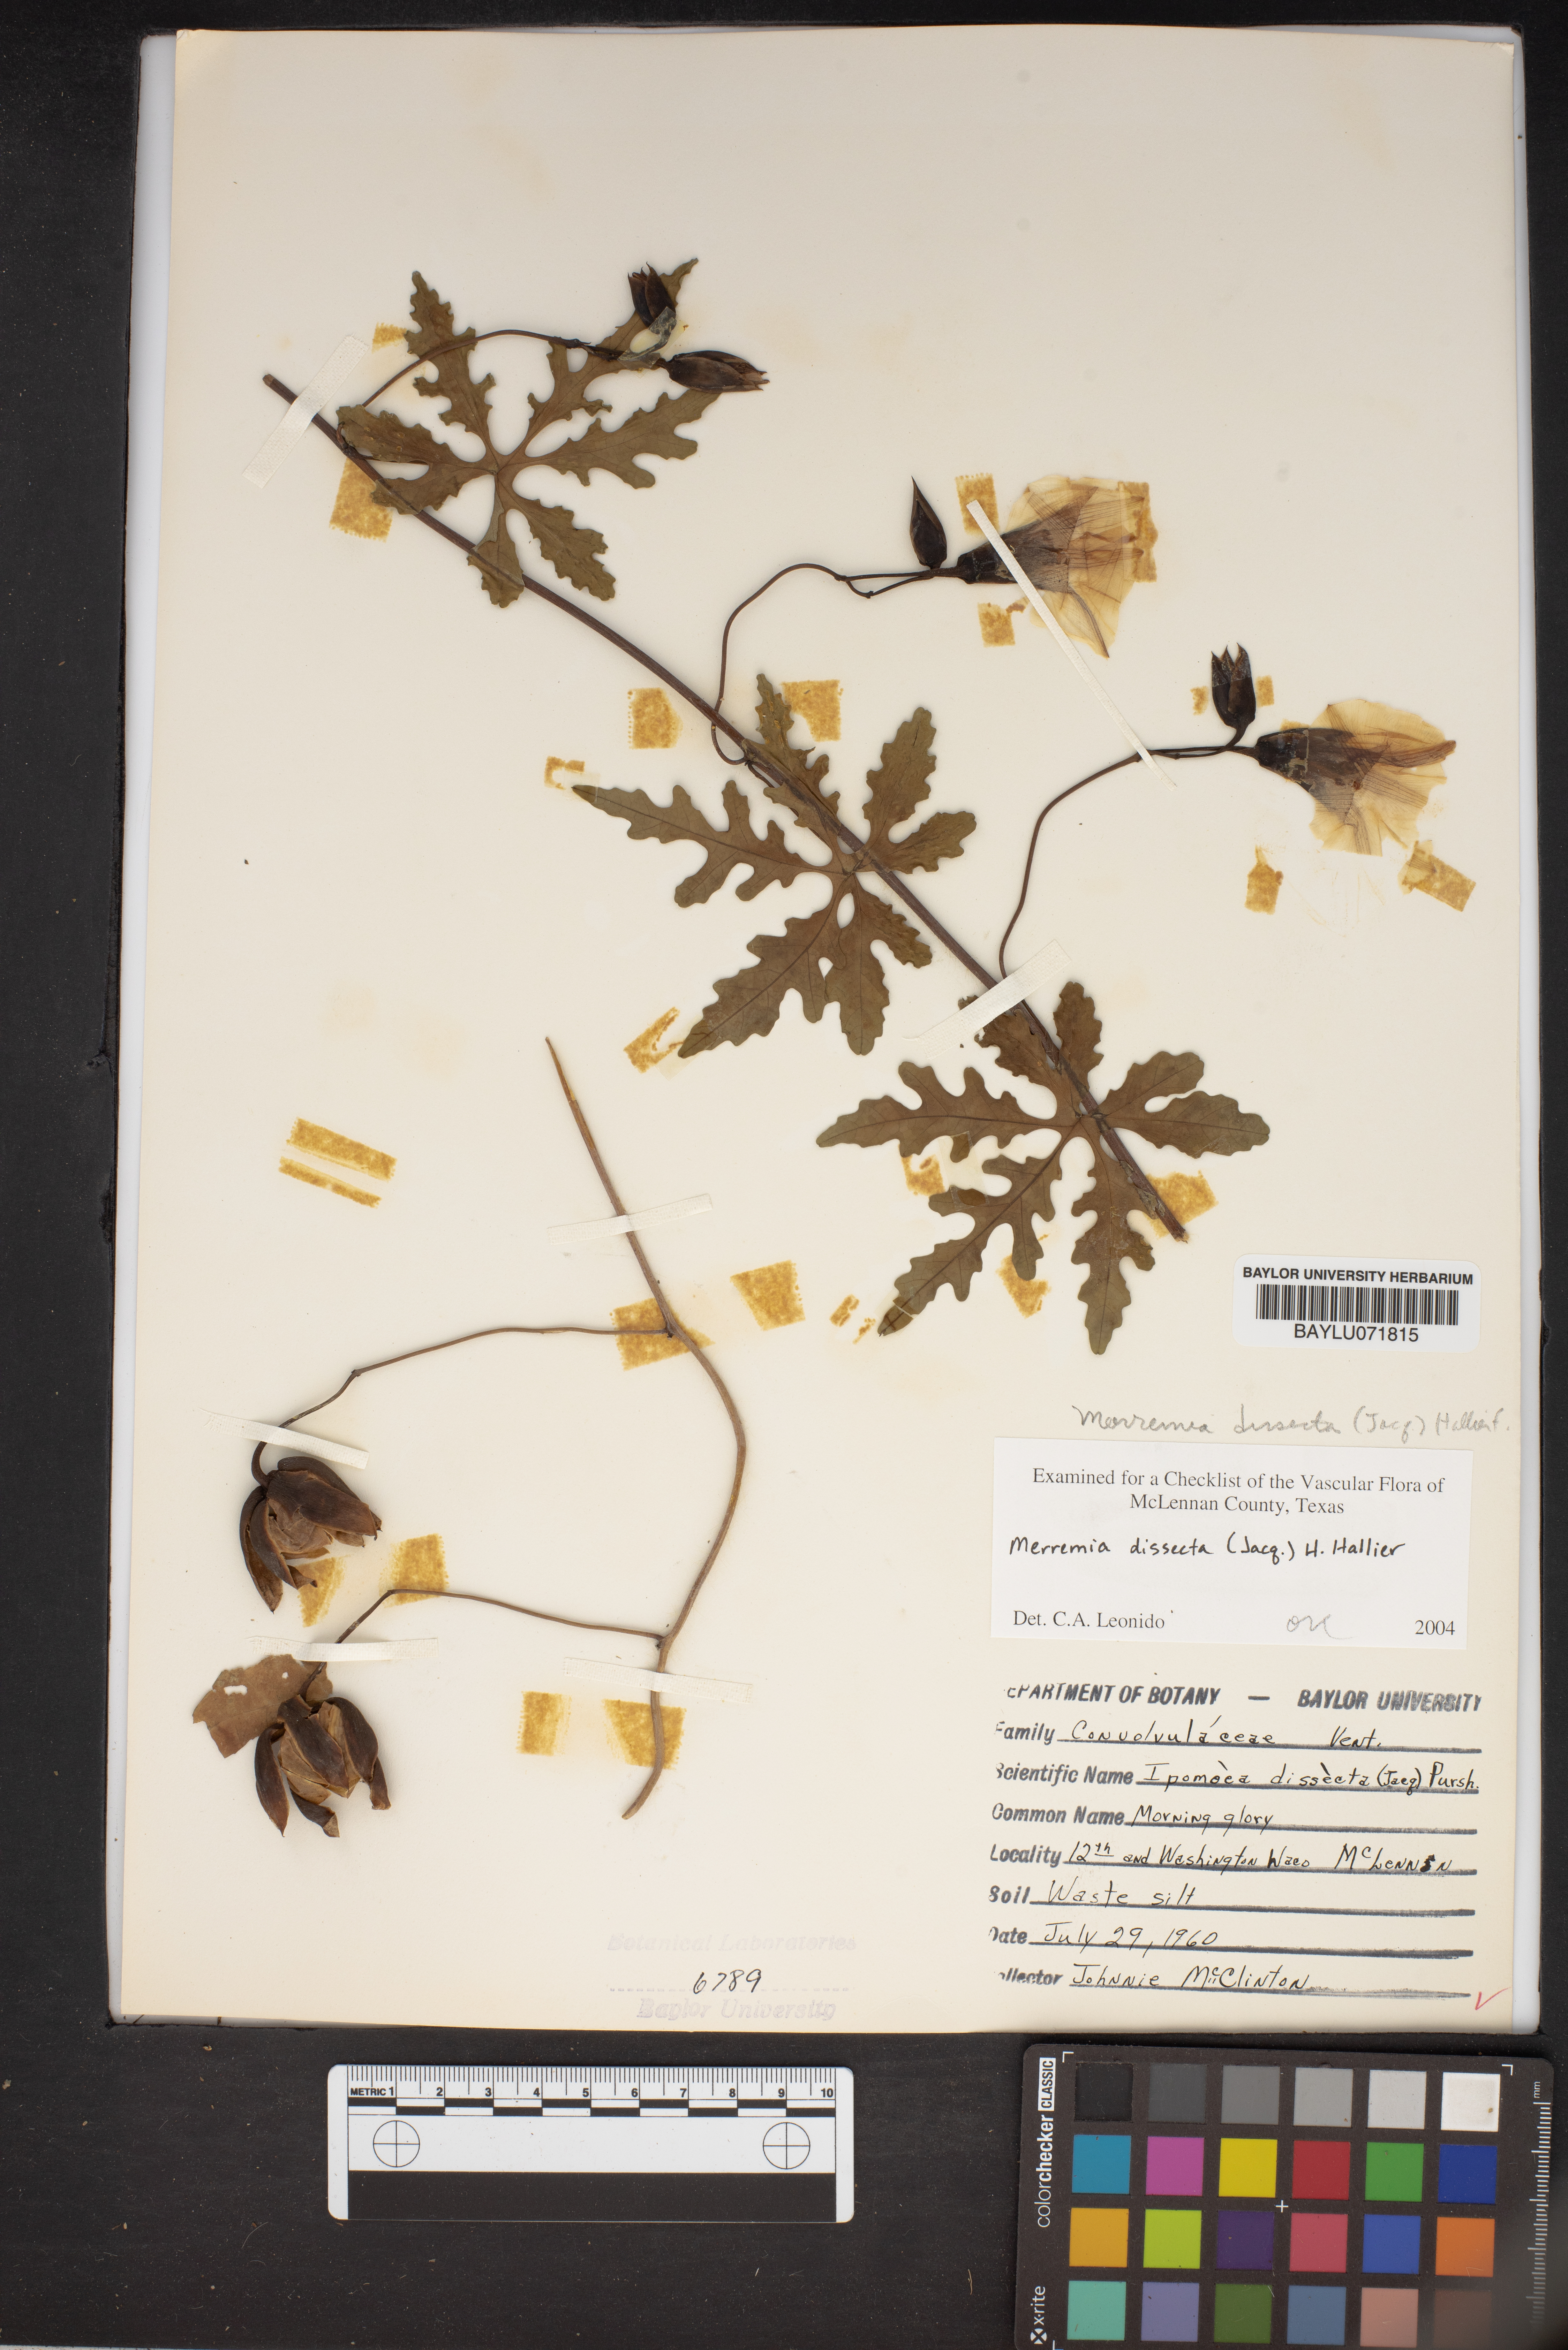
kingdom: Plantae
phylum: Tracheophyta
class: Magnoliopsida
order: Solanales
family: Convolvulaceae
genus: Distimake
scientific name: Distimake dissectus
